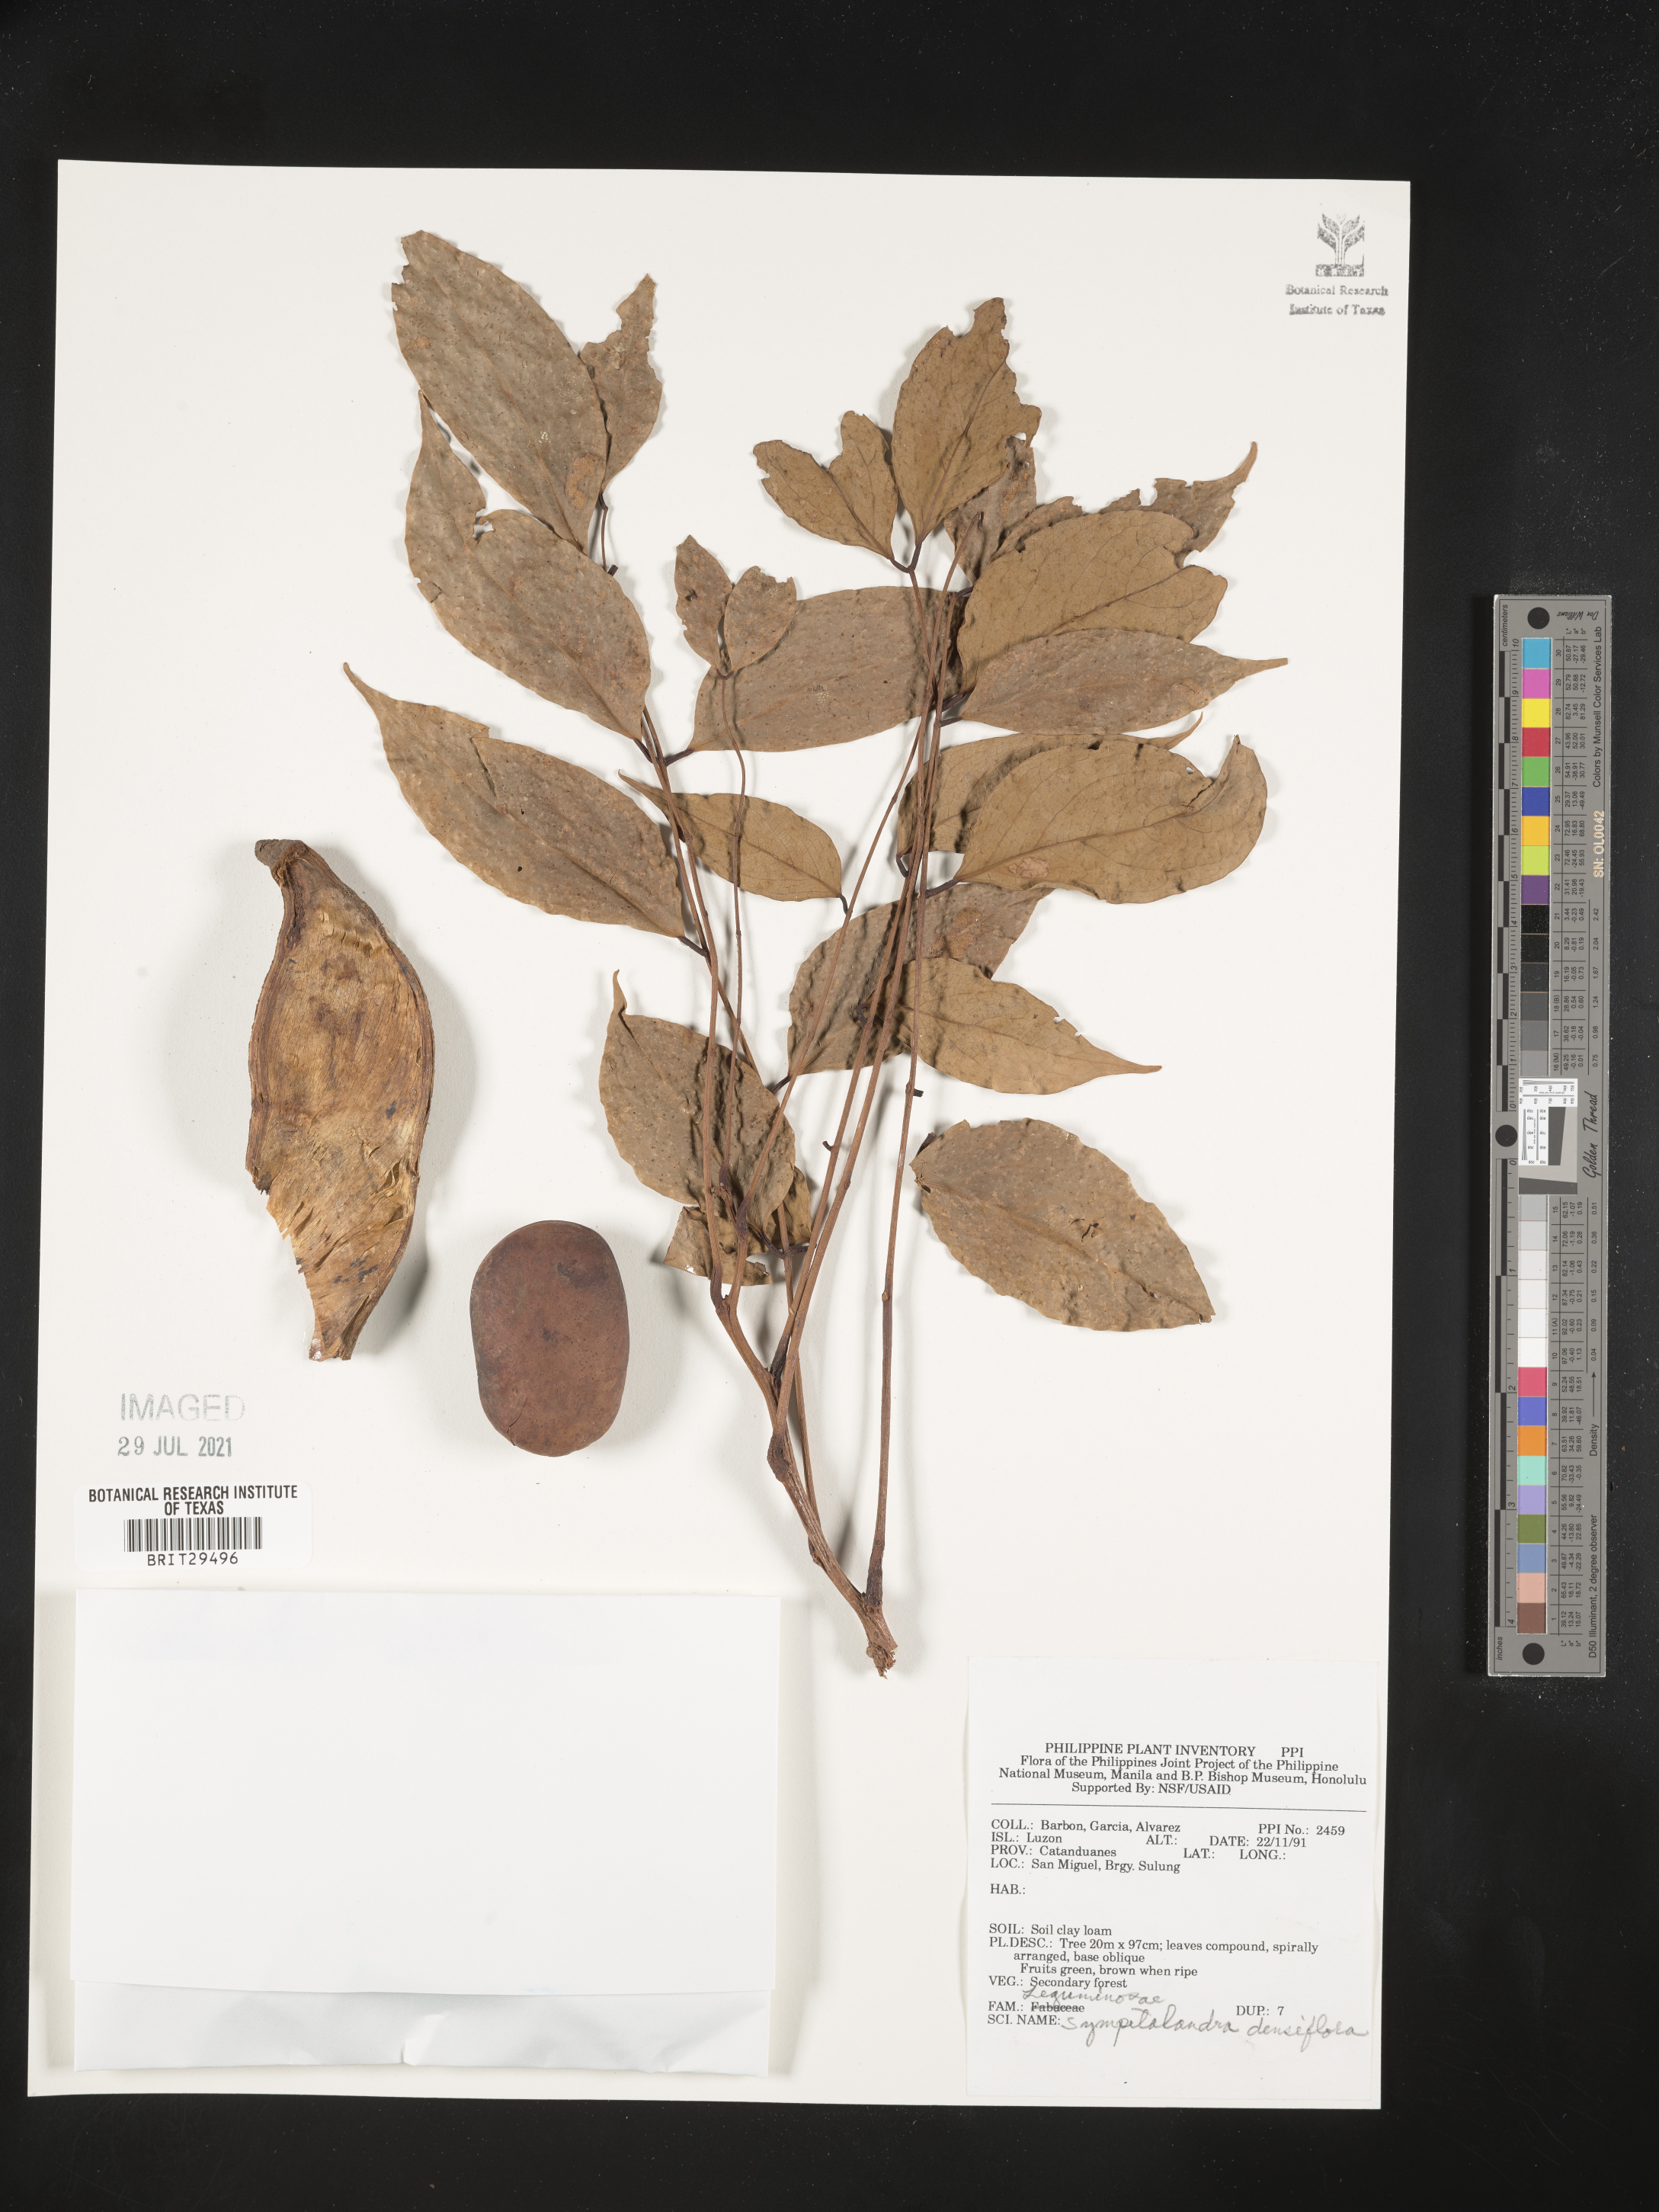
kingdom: Plantae
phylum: Tracheophyta
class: Magnoliopsida
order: Fabales
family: Fabaceae
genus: Sympetalandra
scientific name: Sympetalandra densiflora
